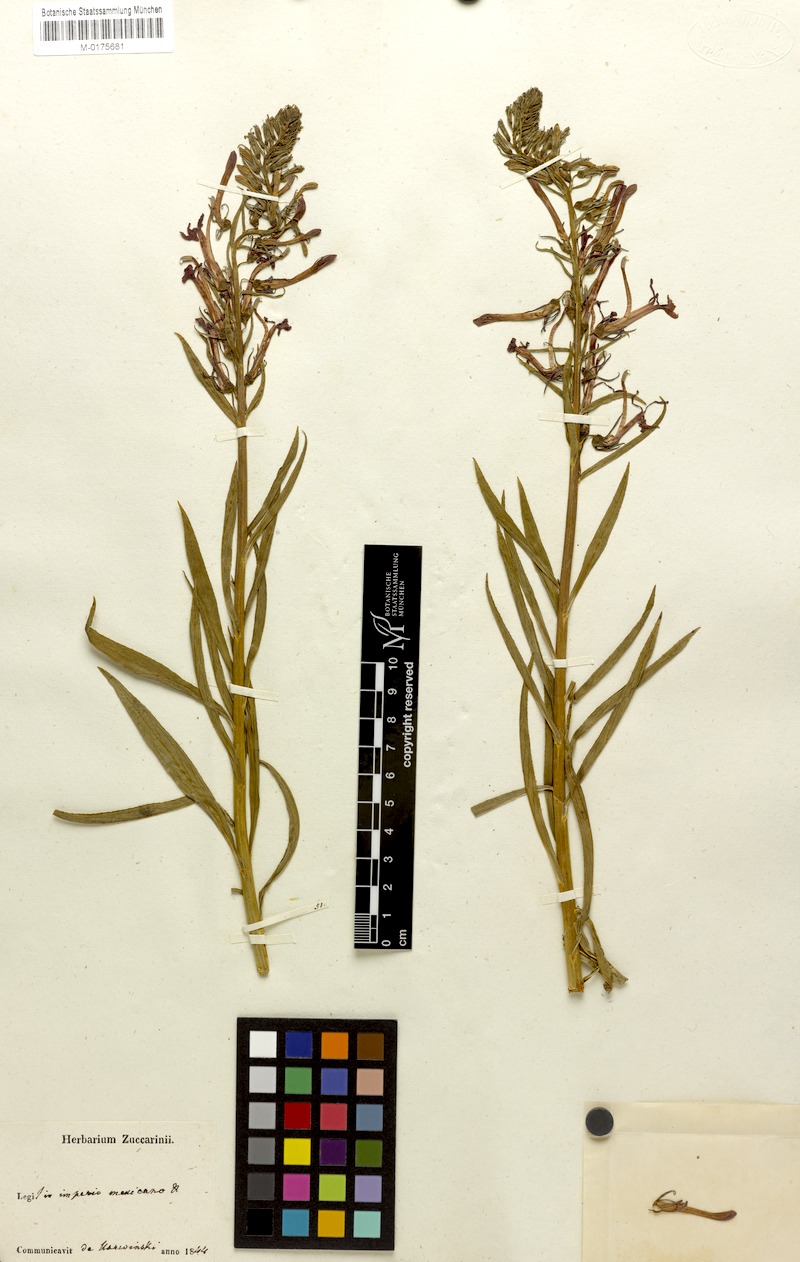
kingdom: Plantae
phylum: Tracheophyta
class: Magnoliopsida
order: Asterales
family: Campanulaceae
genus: Lobelia
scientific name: Lobelia cardinalis
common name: Cardinal flower
